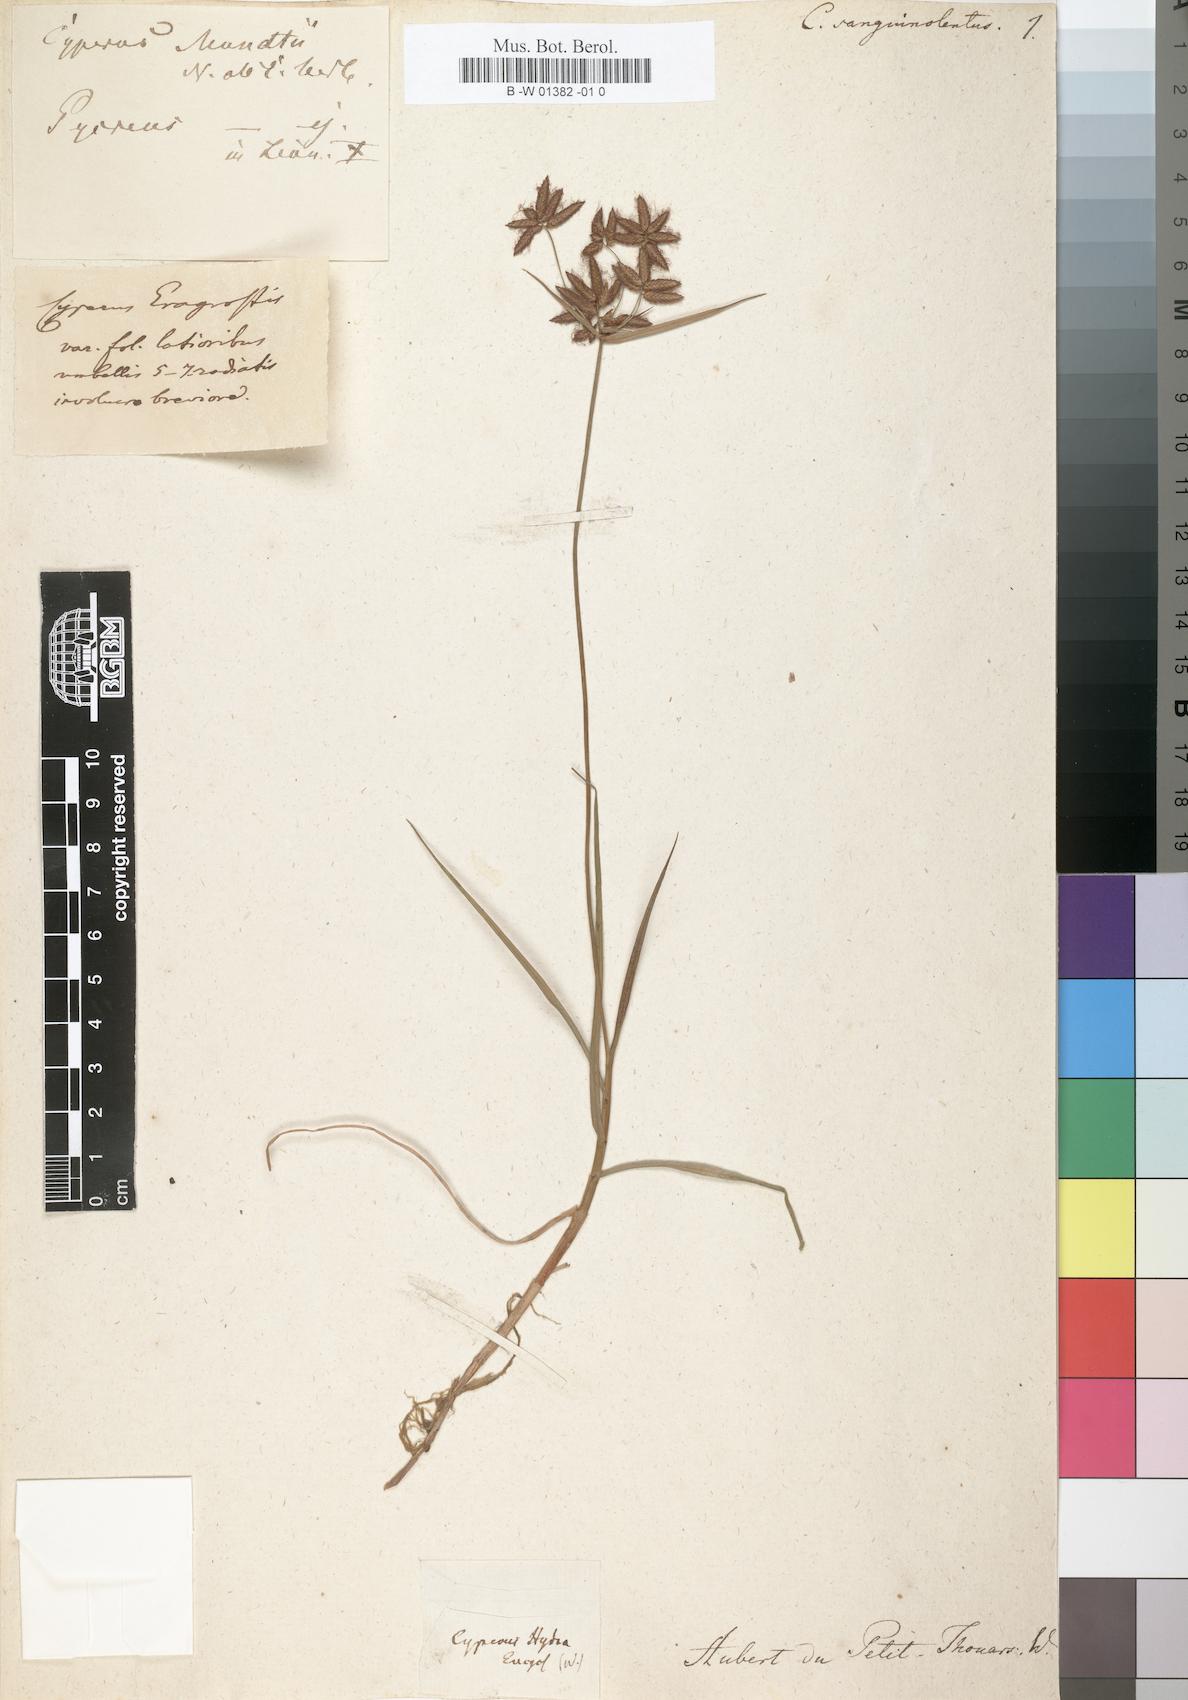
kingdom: Plantae
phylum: Tracheophyta
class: Liliopsida
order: Poales
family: Cyperaceae
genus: Cyperus
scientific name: Cyperus sanguinolentus
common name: Purpleglume flatsedge
